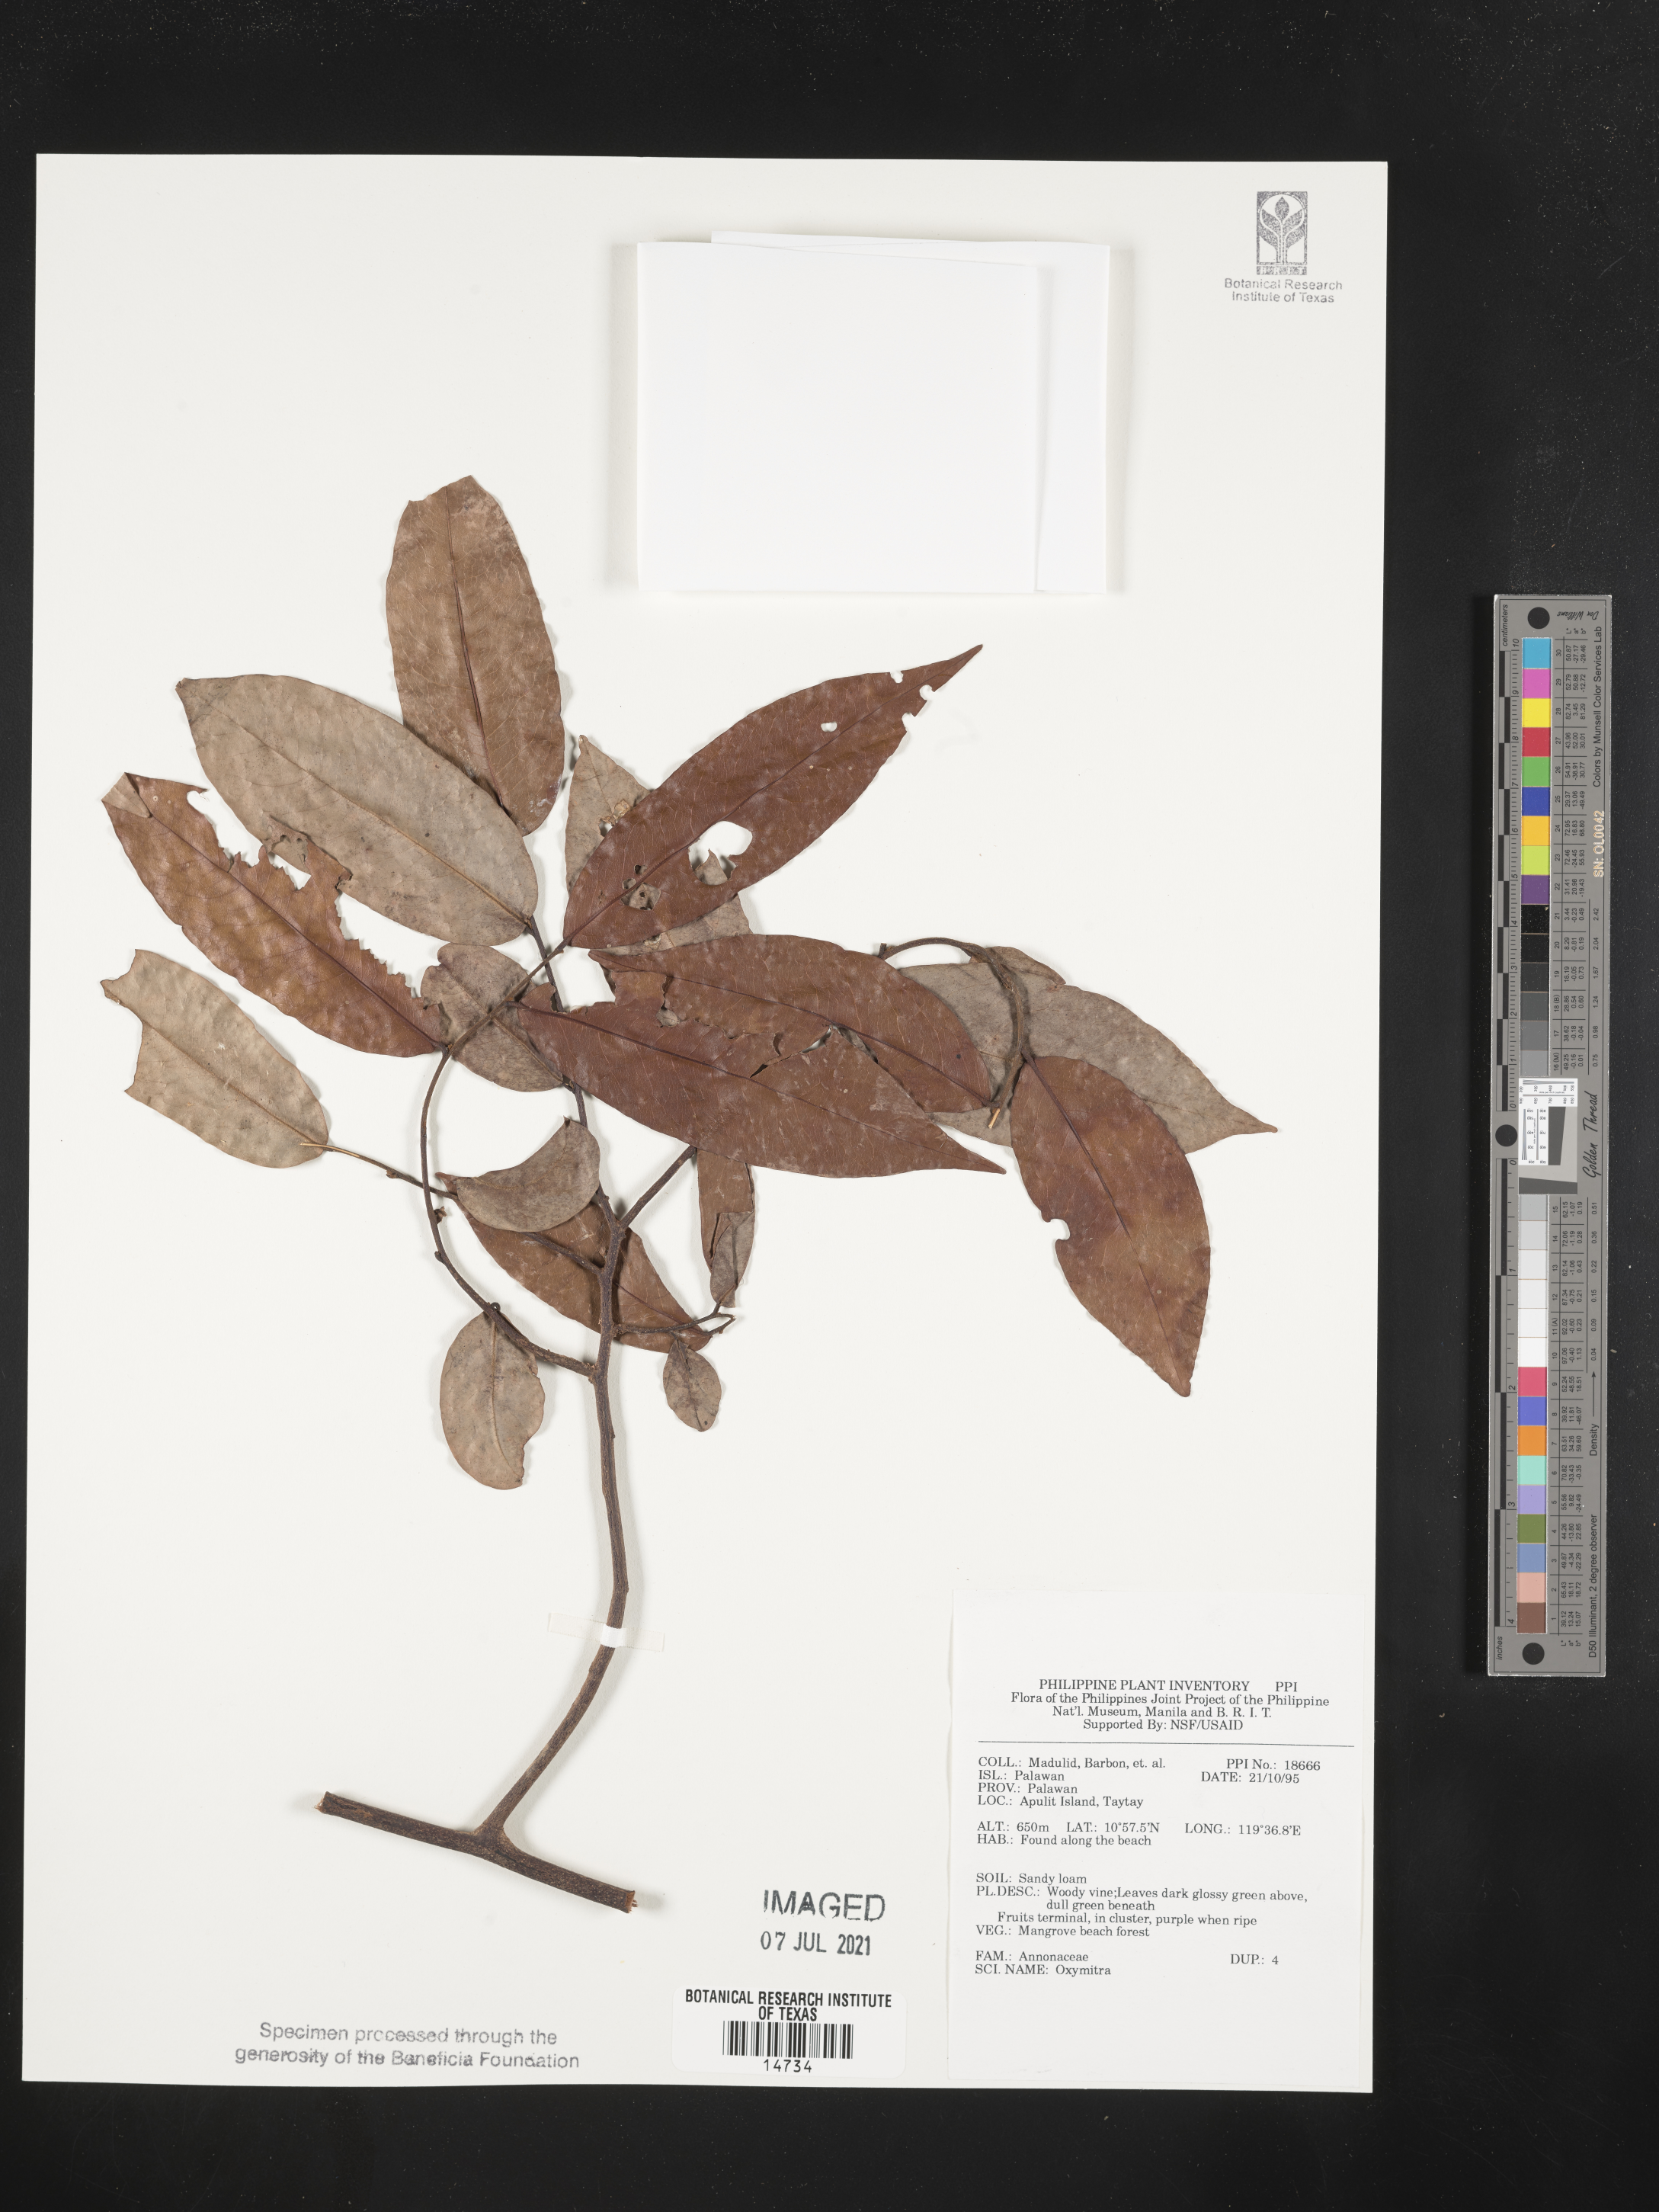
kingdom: Plantae
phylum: Marchantiophyta
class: Marchantiopsida
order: Marchantiales
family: Ricciaceae
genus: Oxymitra
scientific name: Oxymitra
